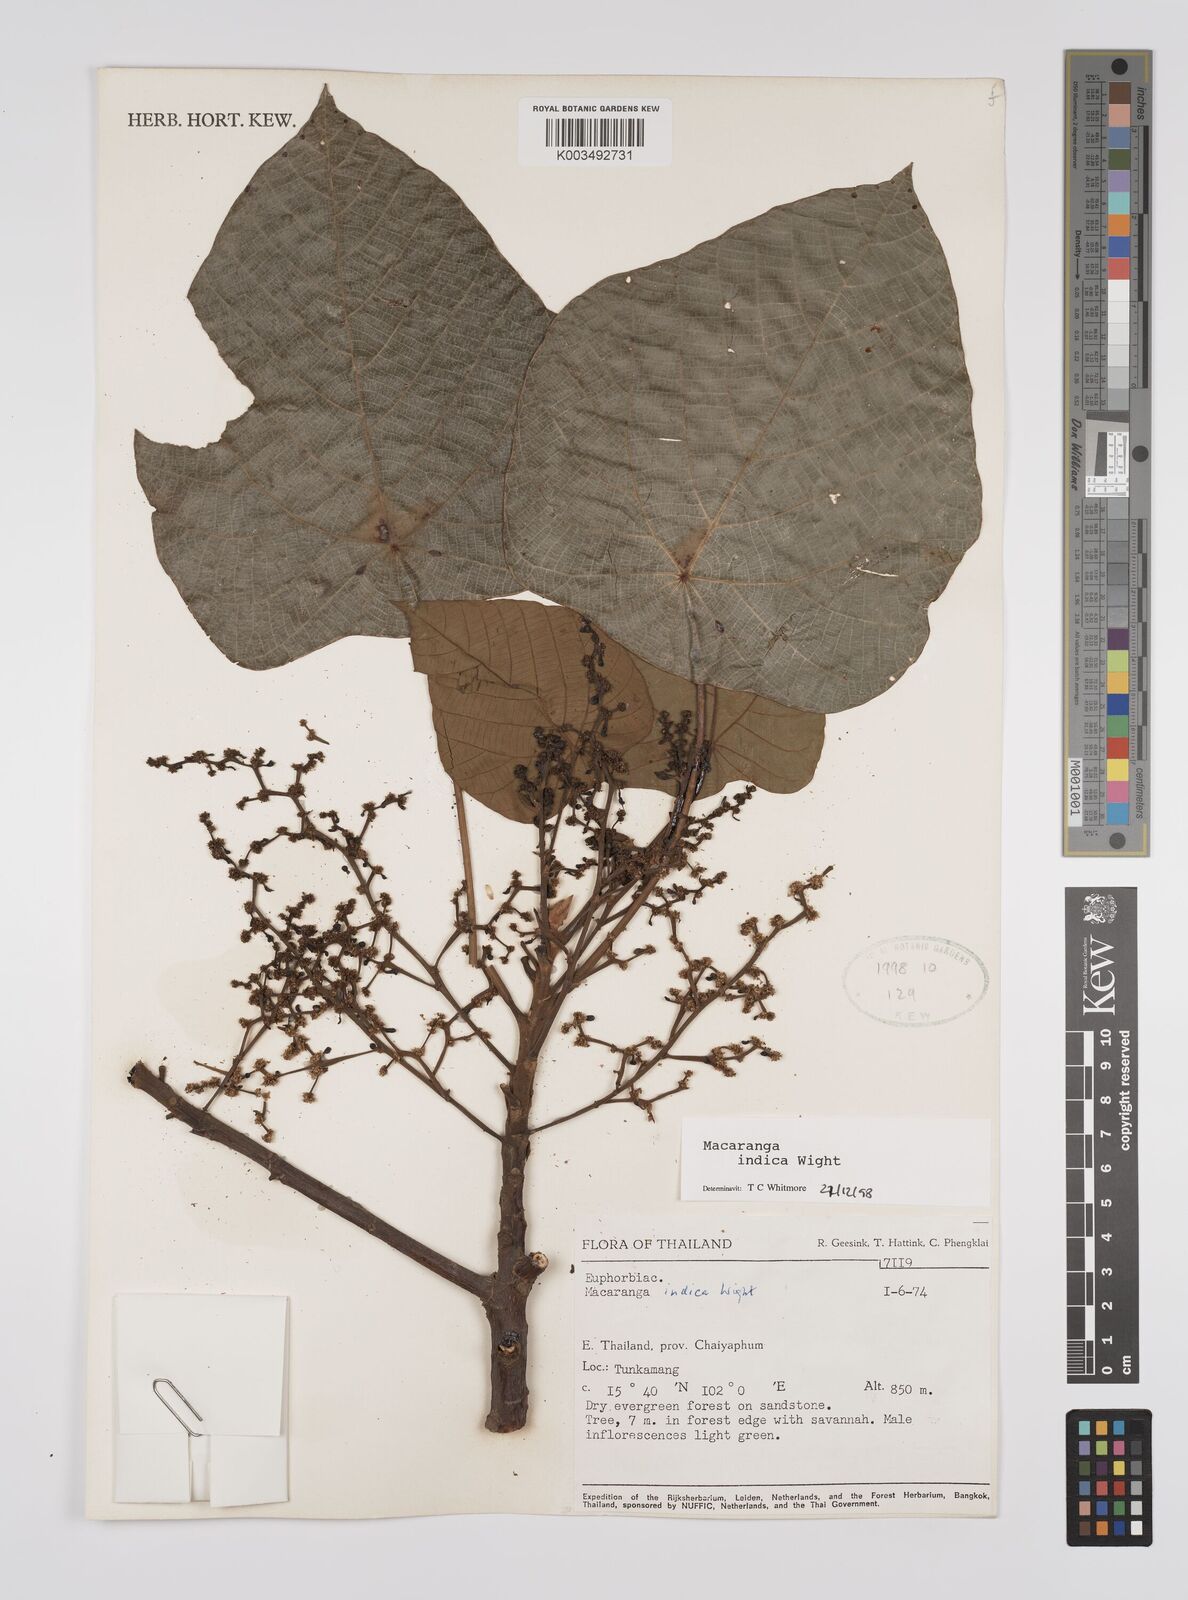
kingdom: Plantae
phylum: Tracheophyta
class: Magnoliopsida
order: Malpighiales
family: Euphorbiaceae
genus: Macaranga
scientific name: Macaranga indica
